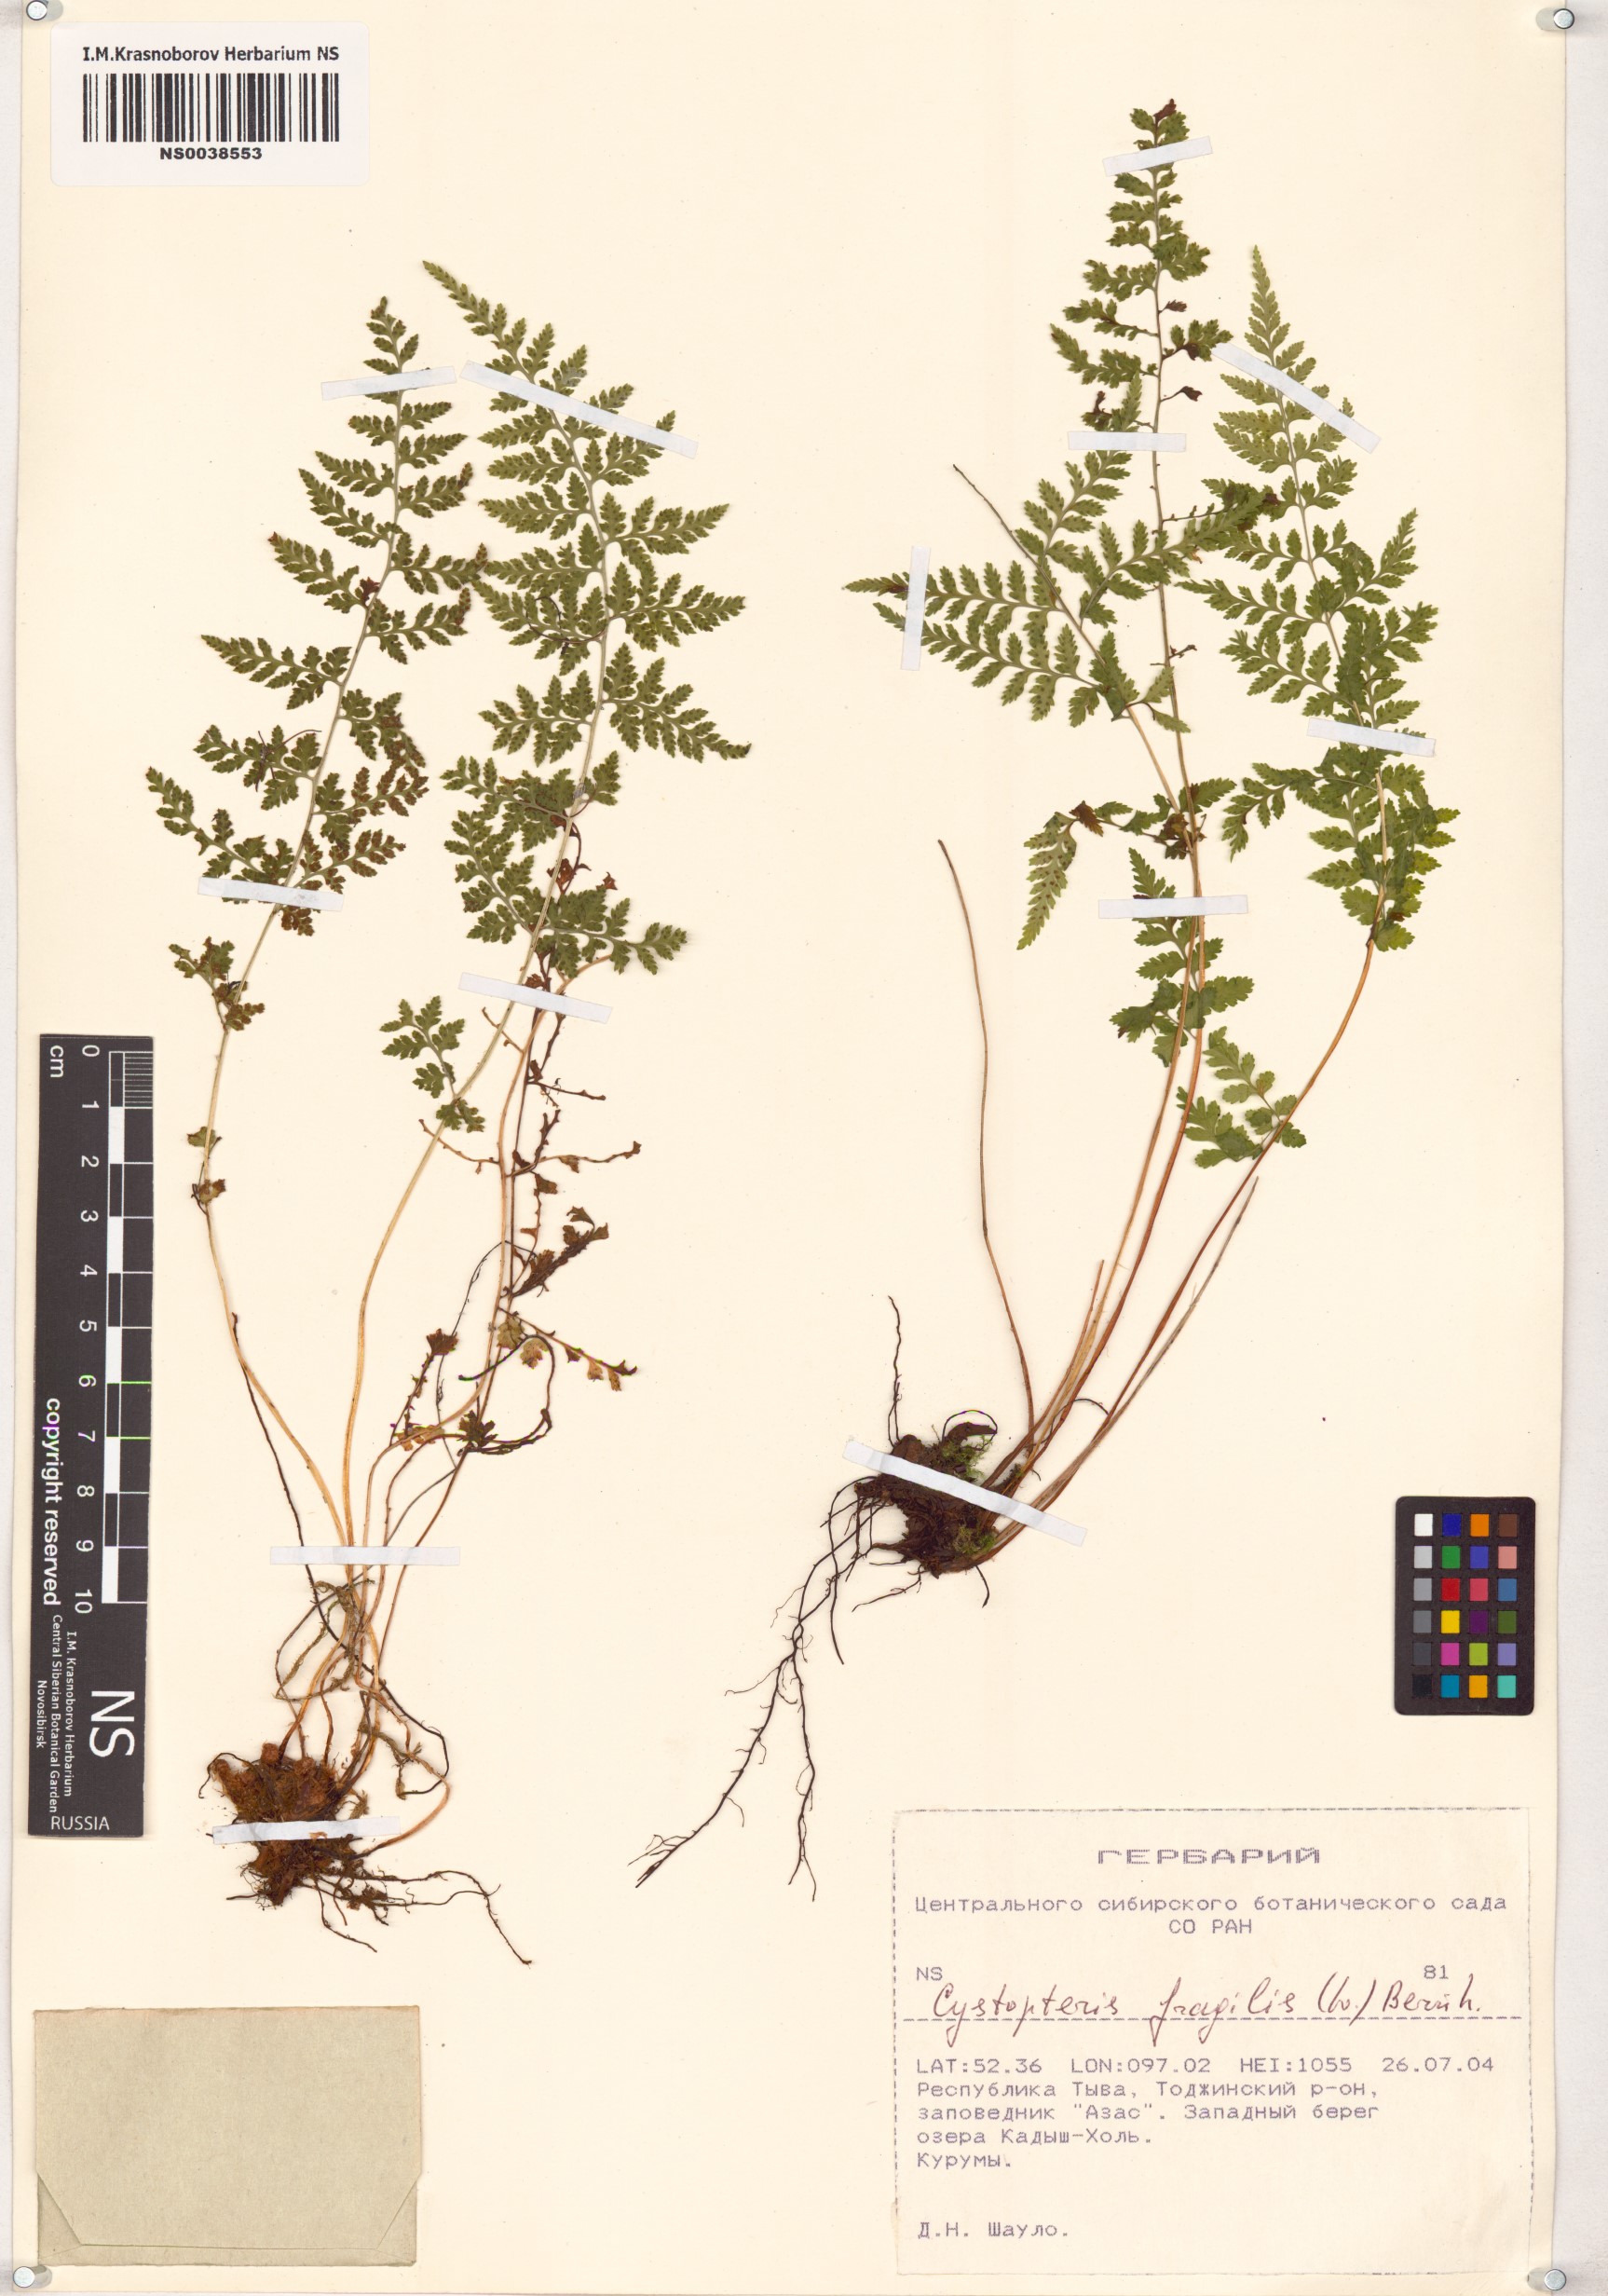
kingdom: Plantae
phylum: Tracheophyta
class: Polypodiopsida
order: Polypodiales
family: Cystopteridaceae
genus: Cystopteris
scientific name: Cystopteris fragilis
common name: Brittle bladder fern
